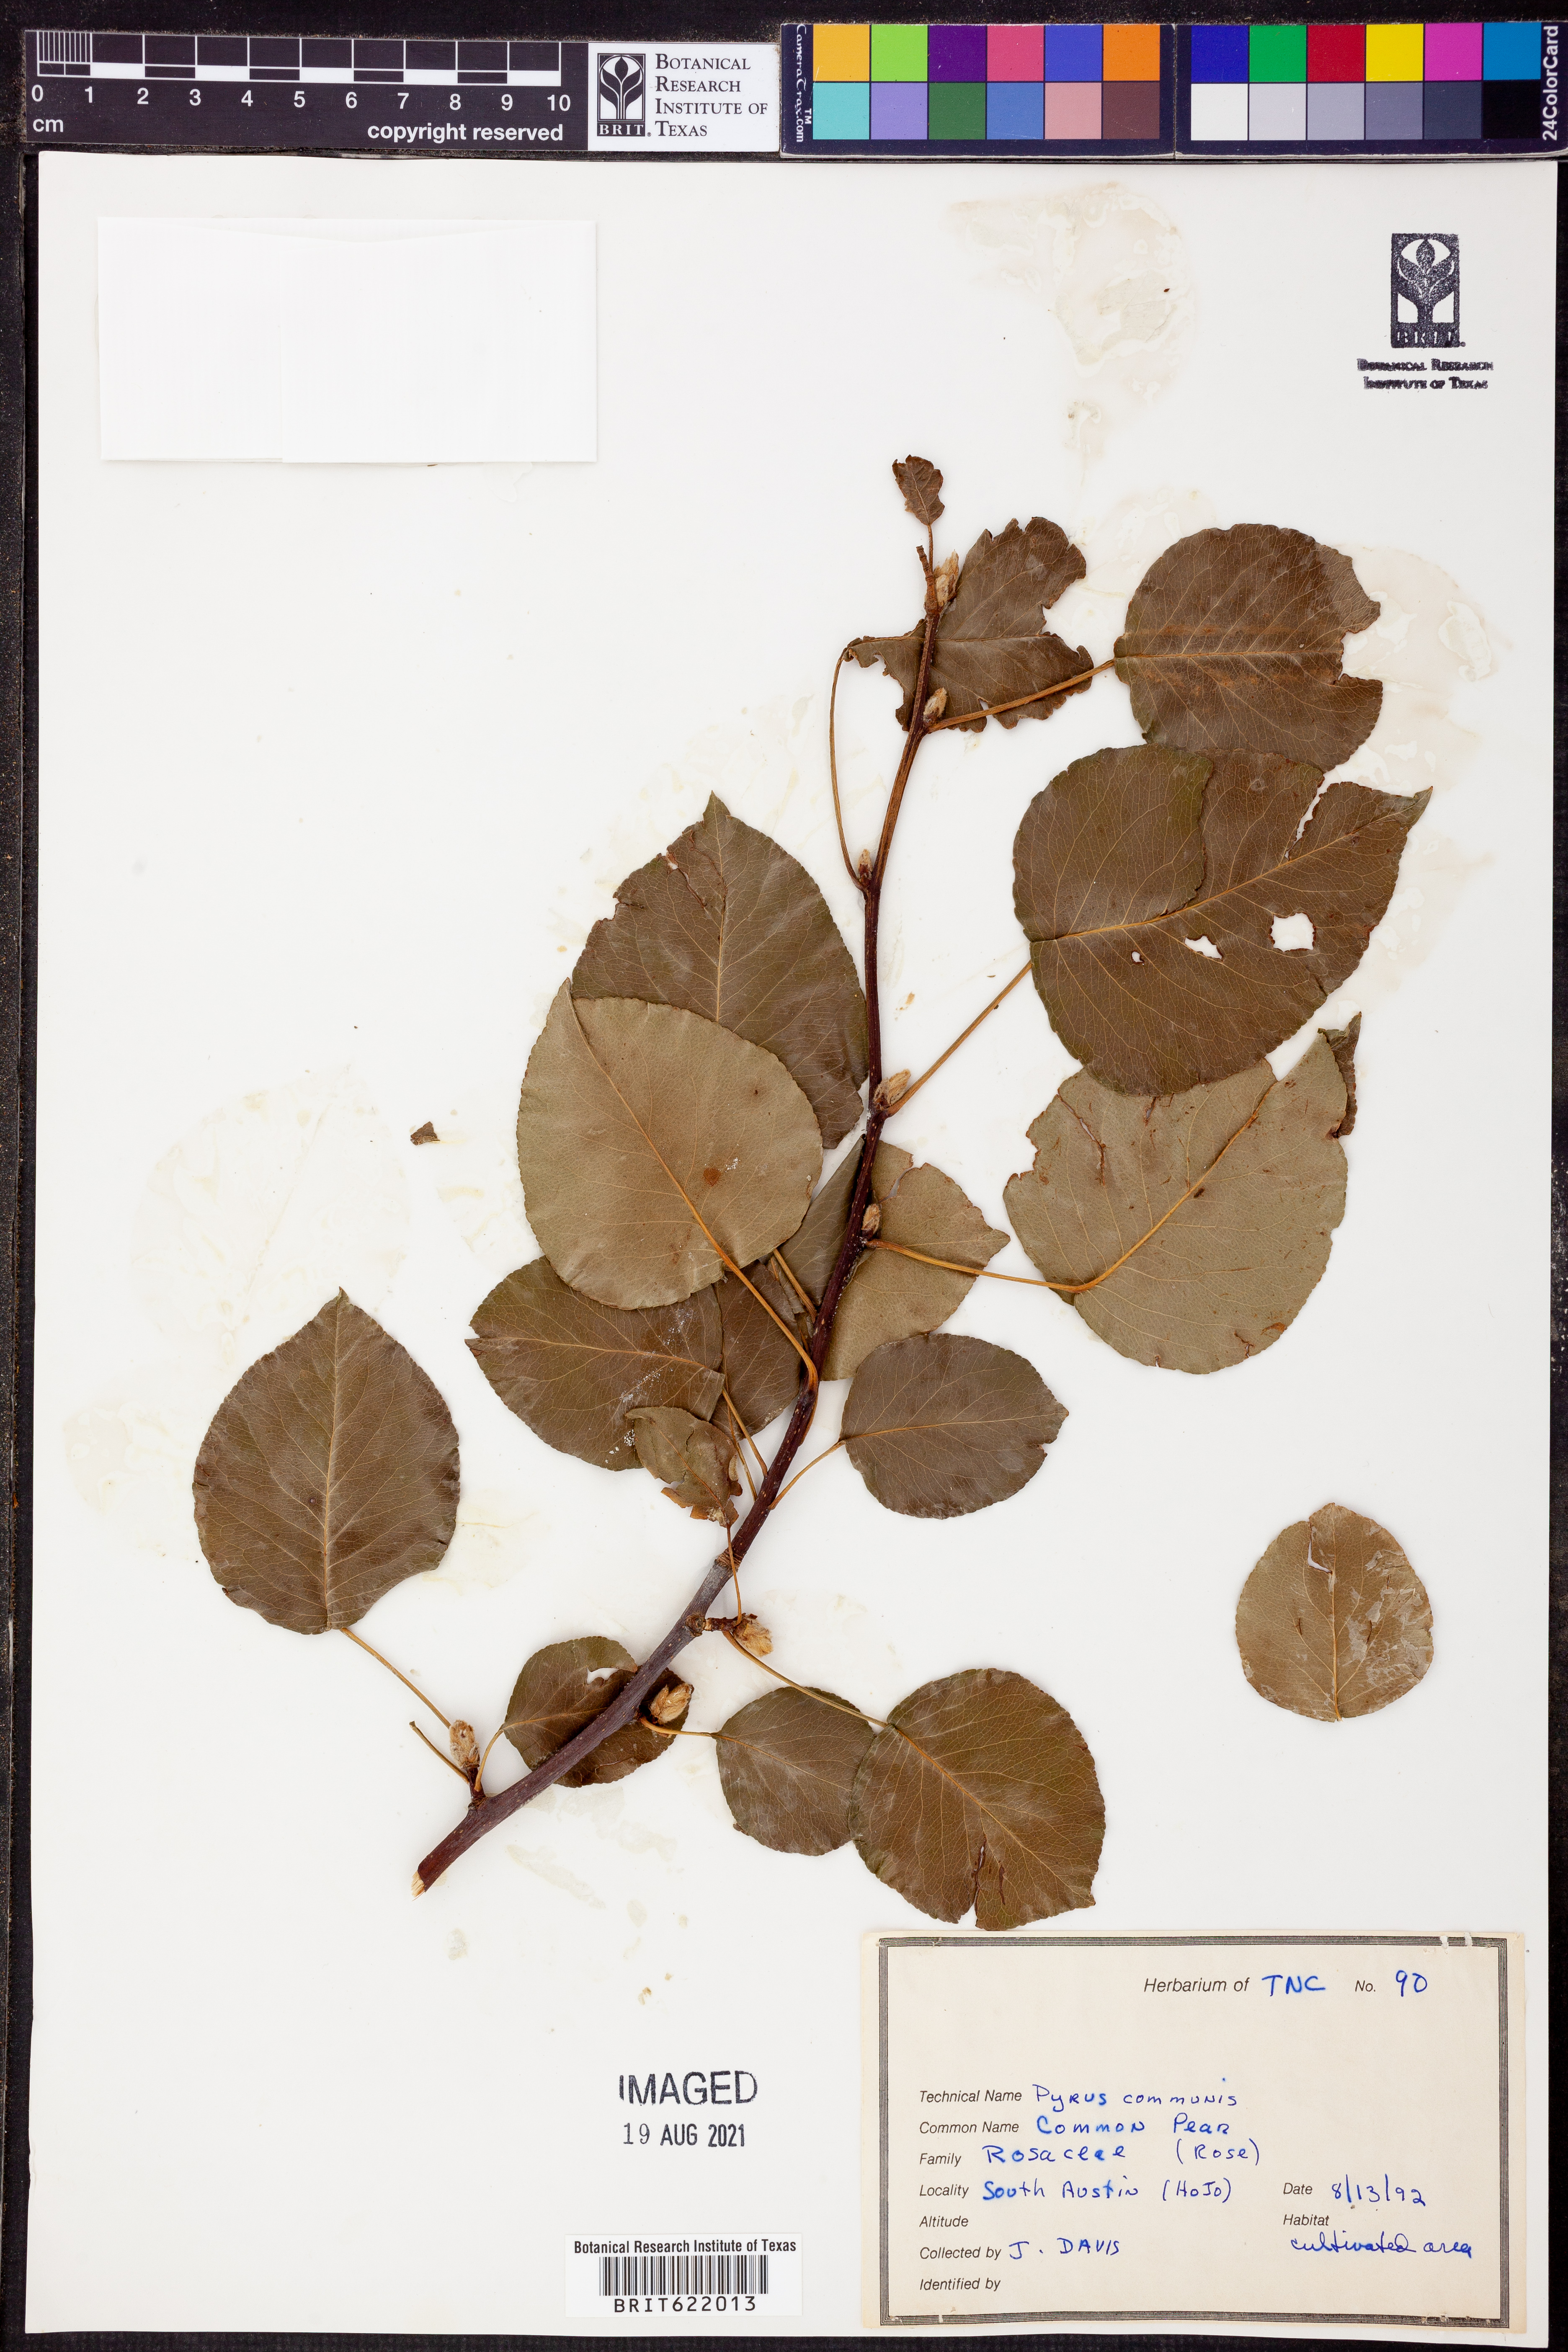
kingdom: Plantae
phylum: Tracheophyta
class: Magnoliopsida
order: Rosales
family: Rosaceae
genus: Pyrus
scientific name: Pyrus communis
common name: Pear
